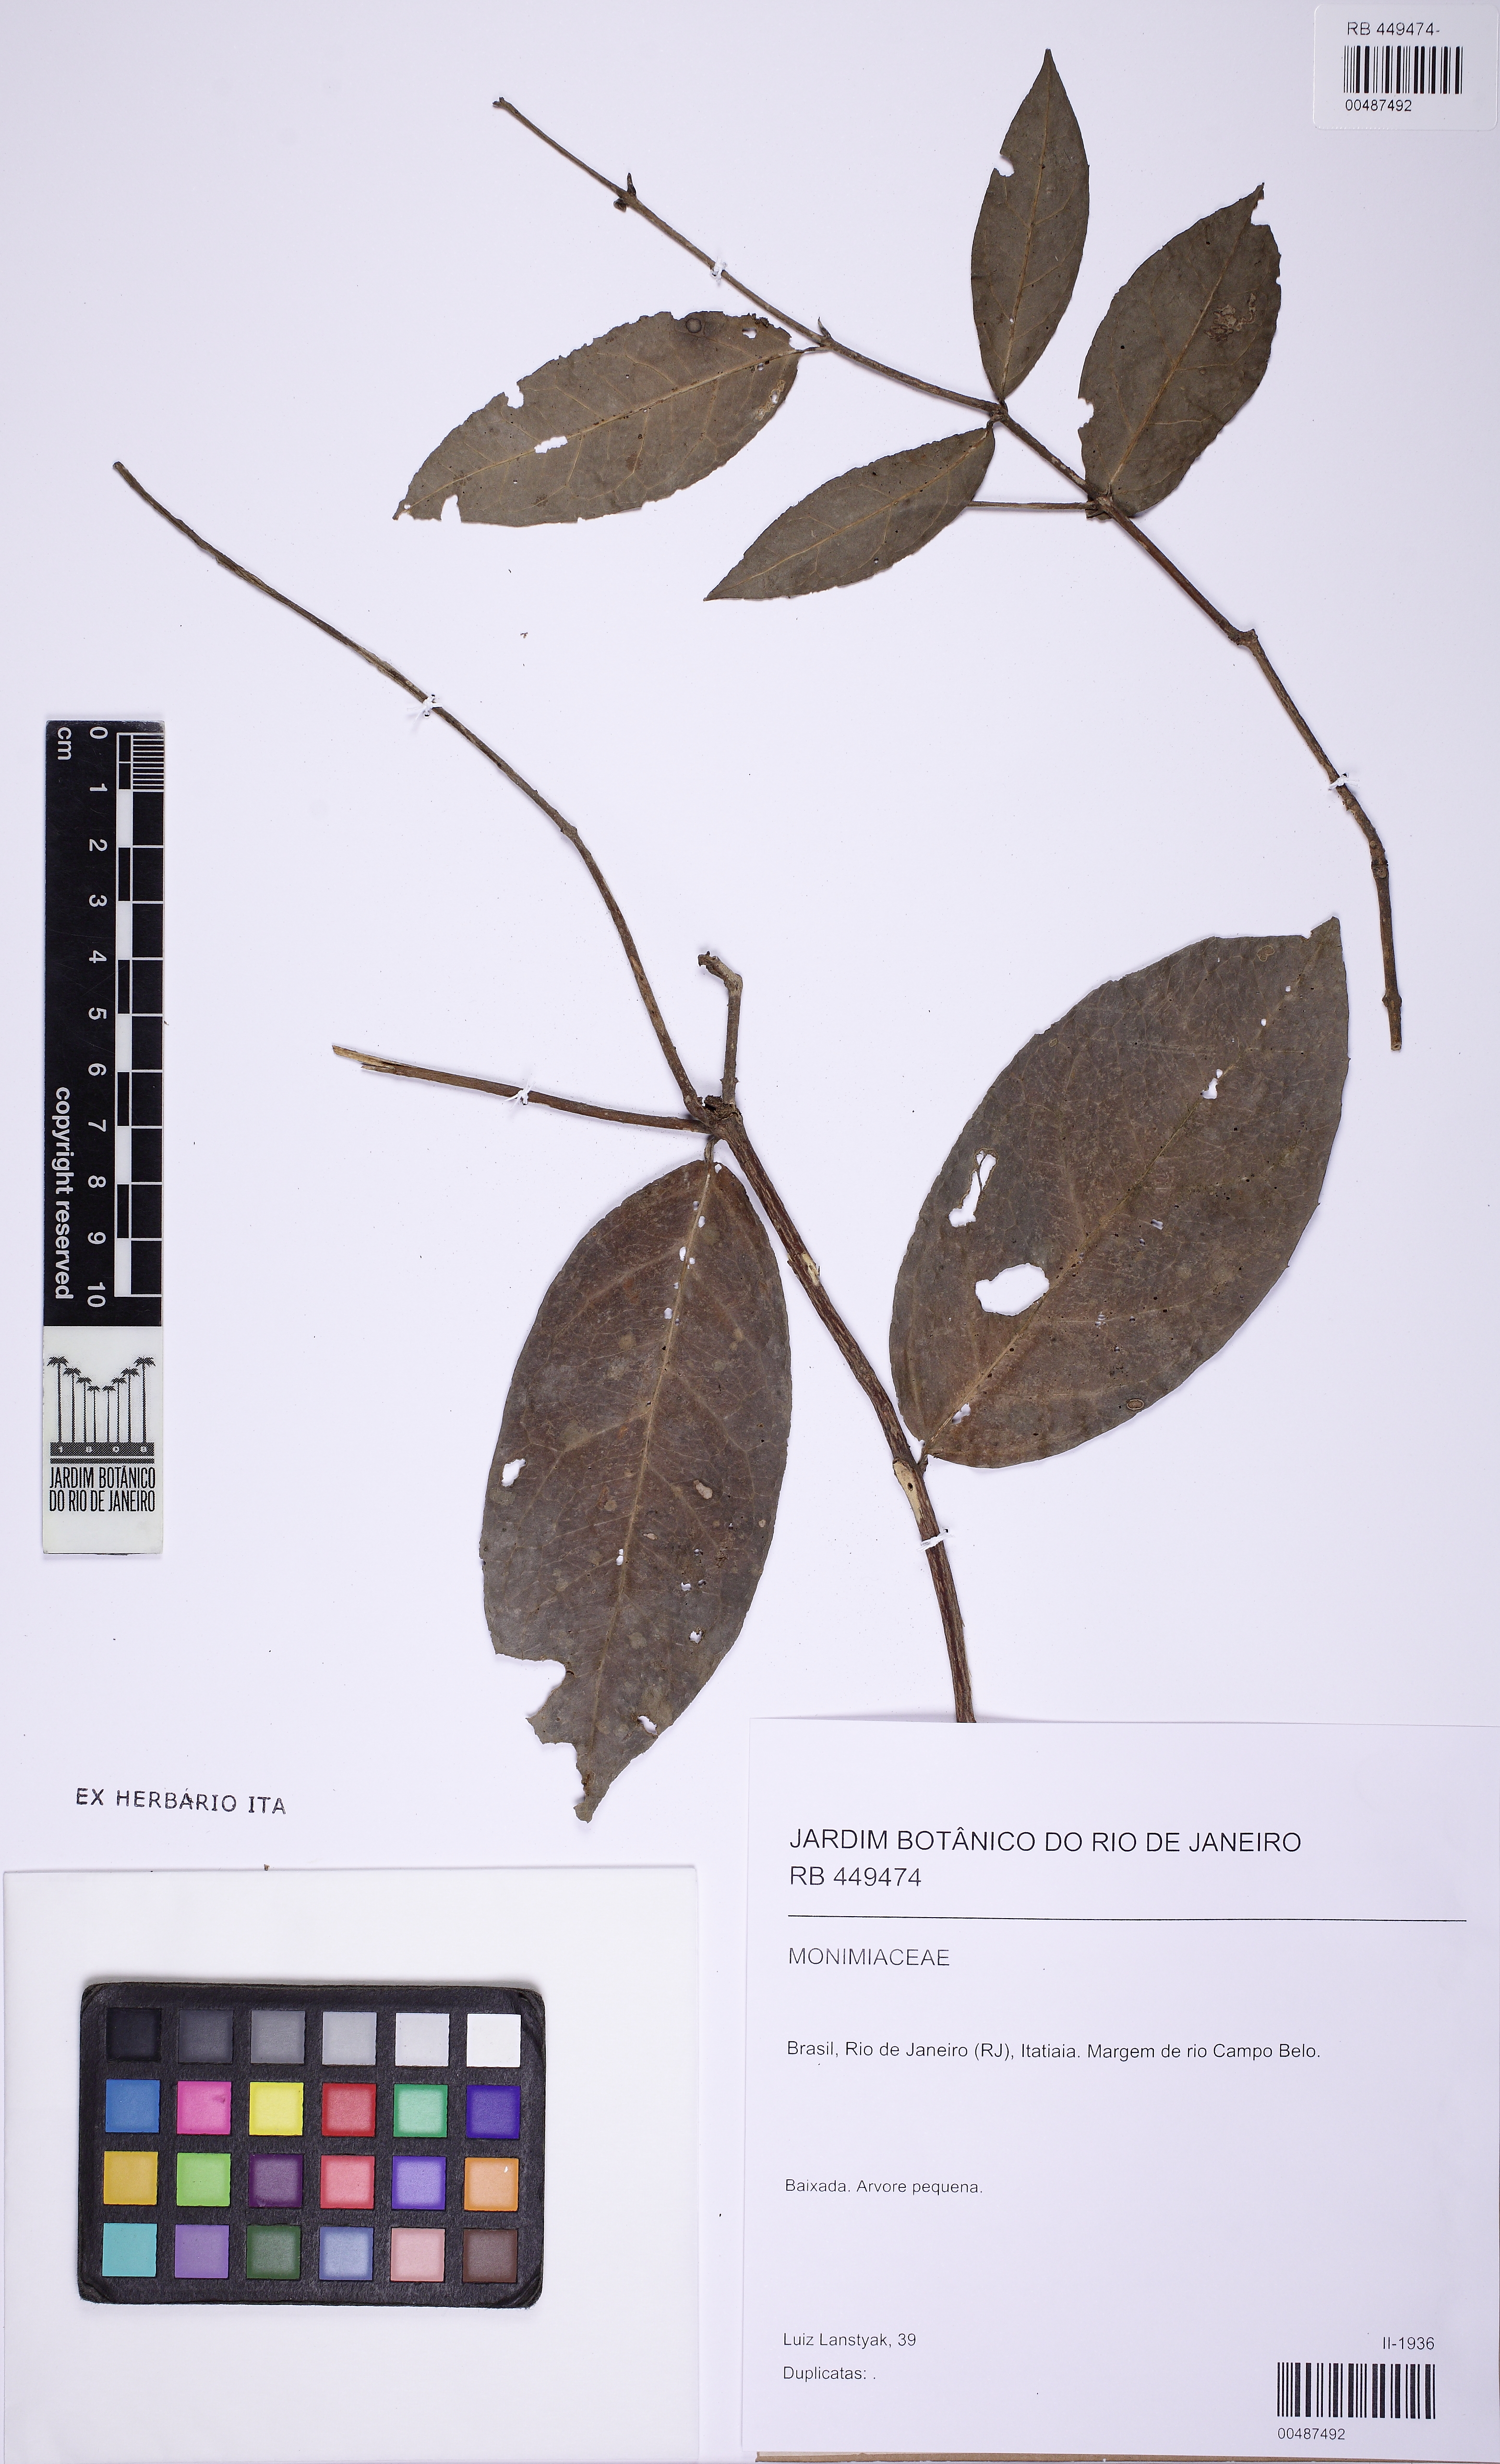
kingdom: Plantae
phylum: Tracheophyta
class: Magnoliopsida
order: Laurales
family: Monimiaceae
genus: Mollinedia
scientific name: Mollinedia ovata
